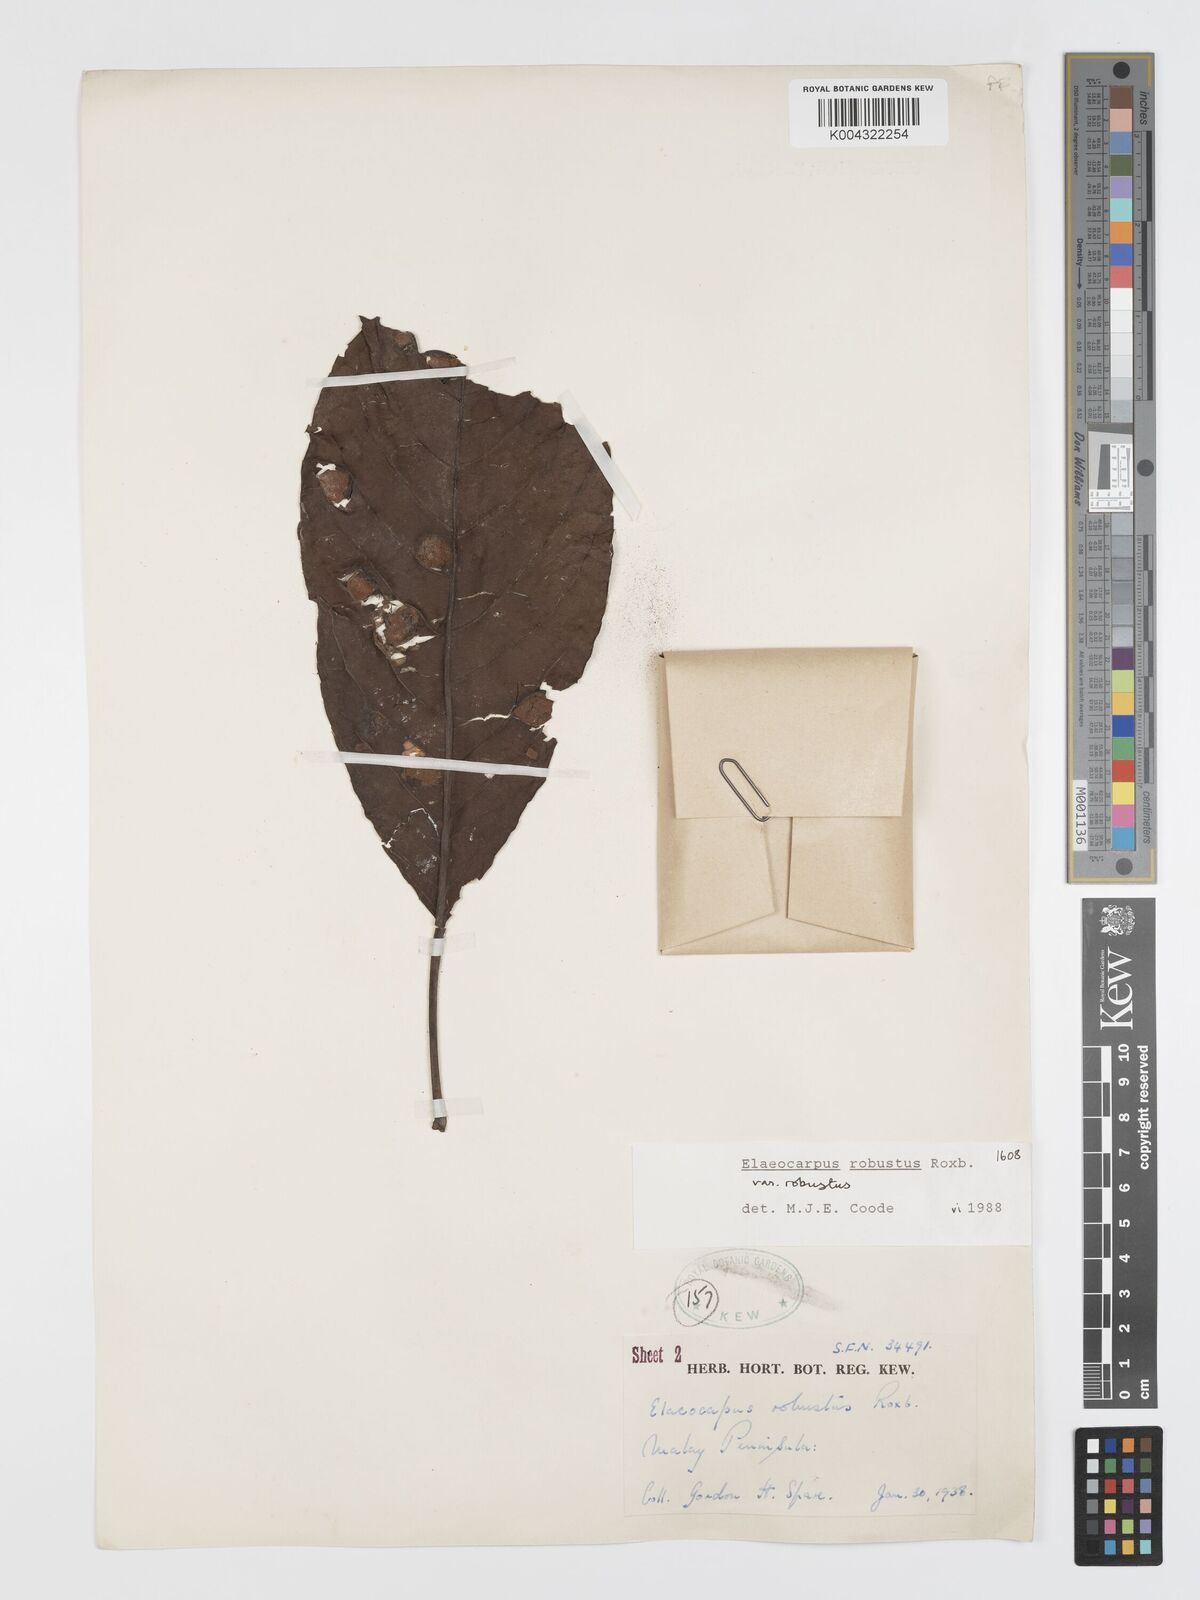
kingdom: Plantae
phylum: Tracheophyta
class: Magnoliopsida
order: Oxalidales
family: Elaeocarpaceae
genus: Elaeocarpus
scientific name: Elaeocarpus robustus
